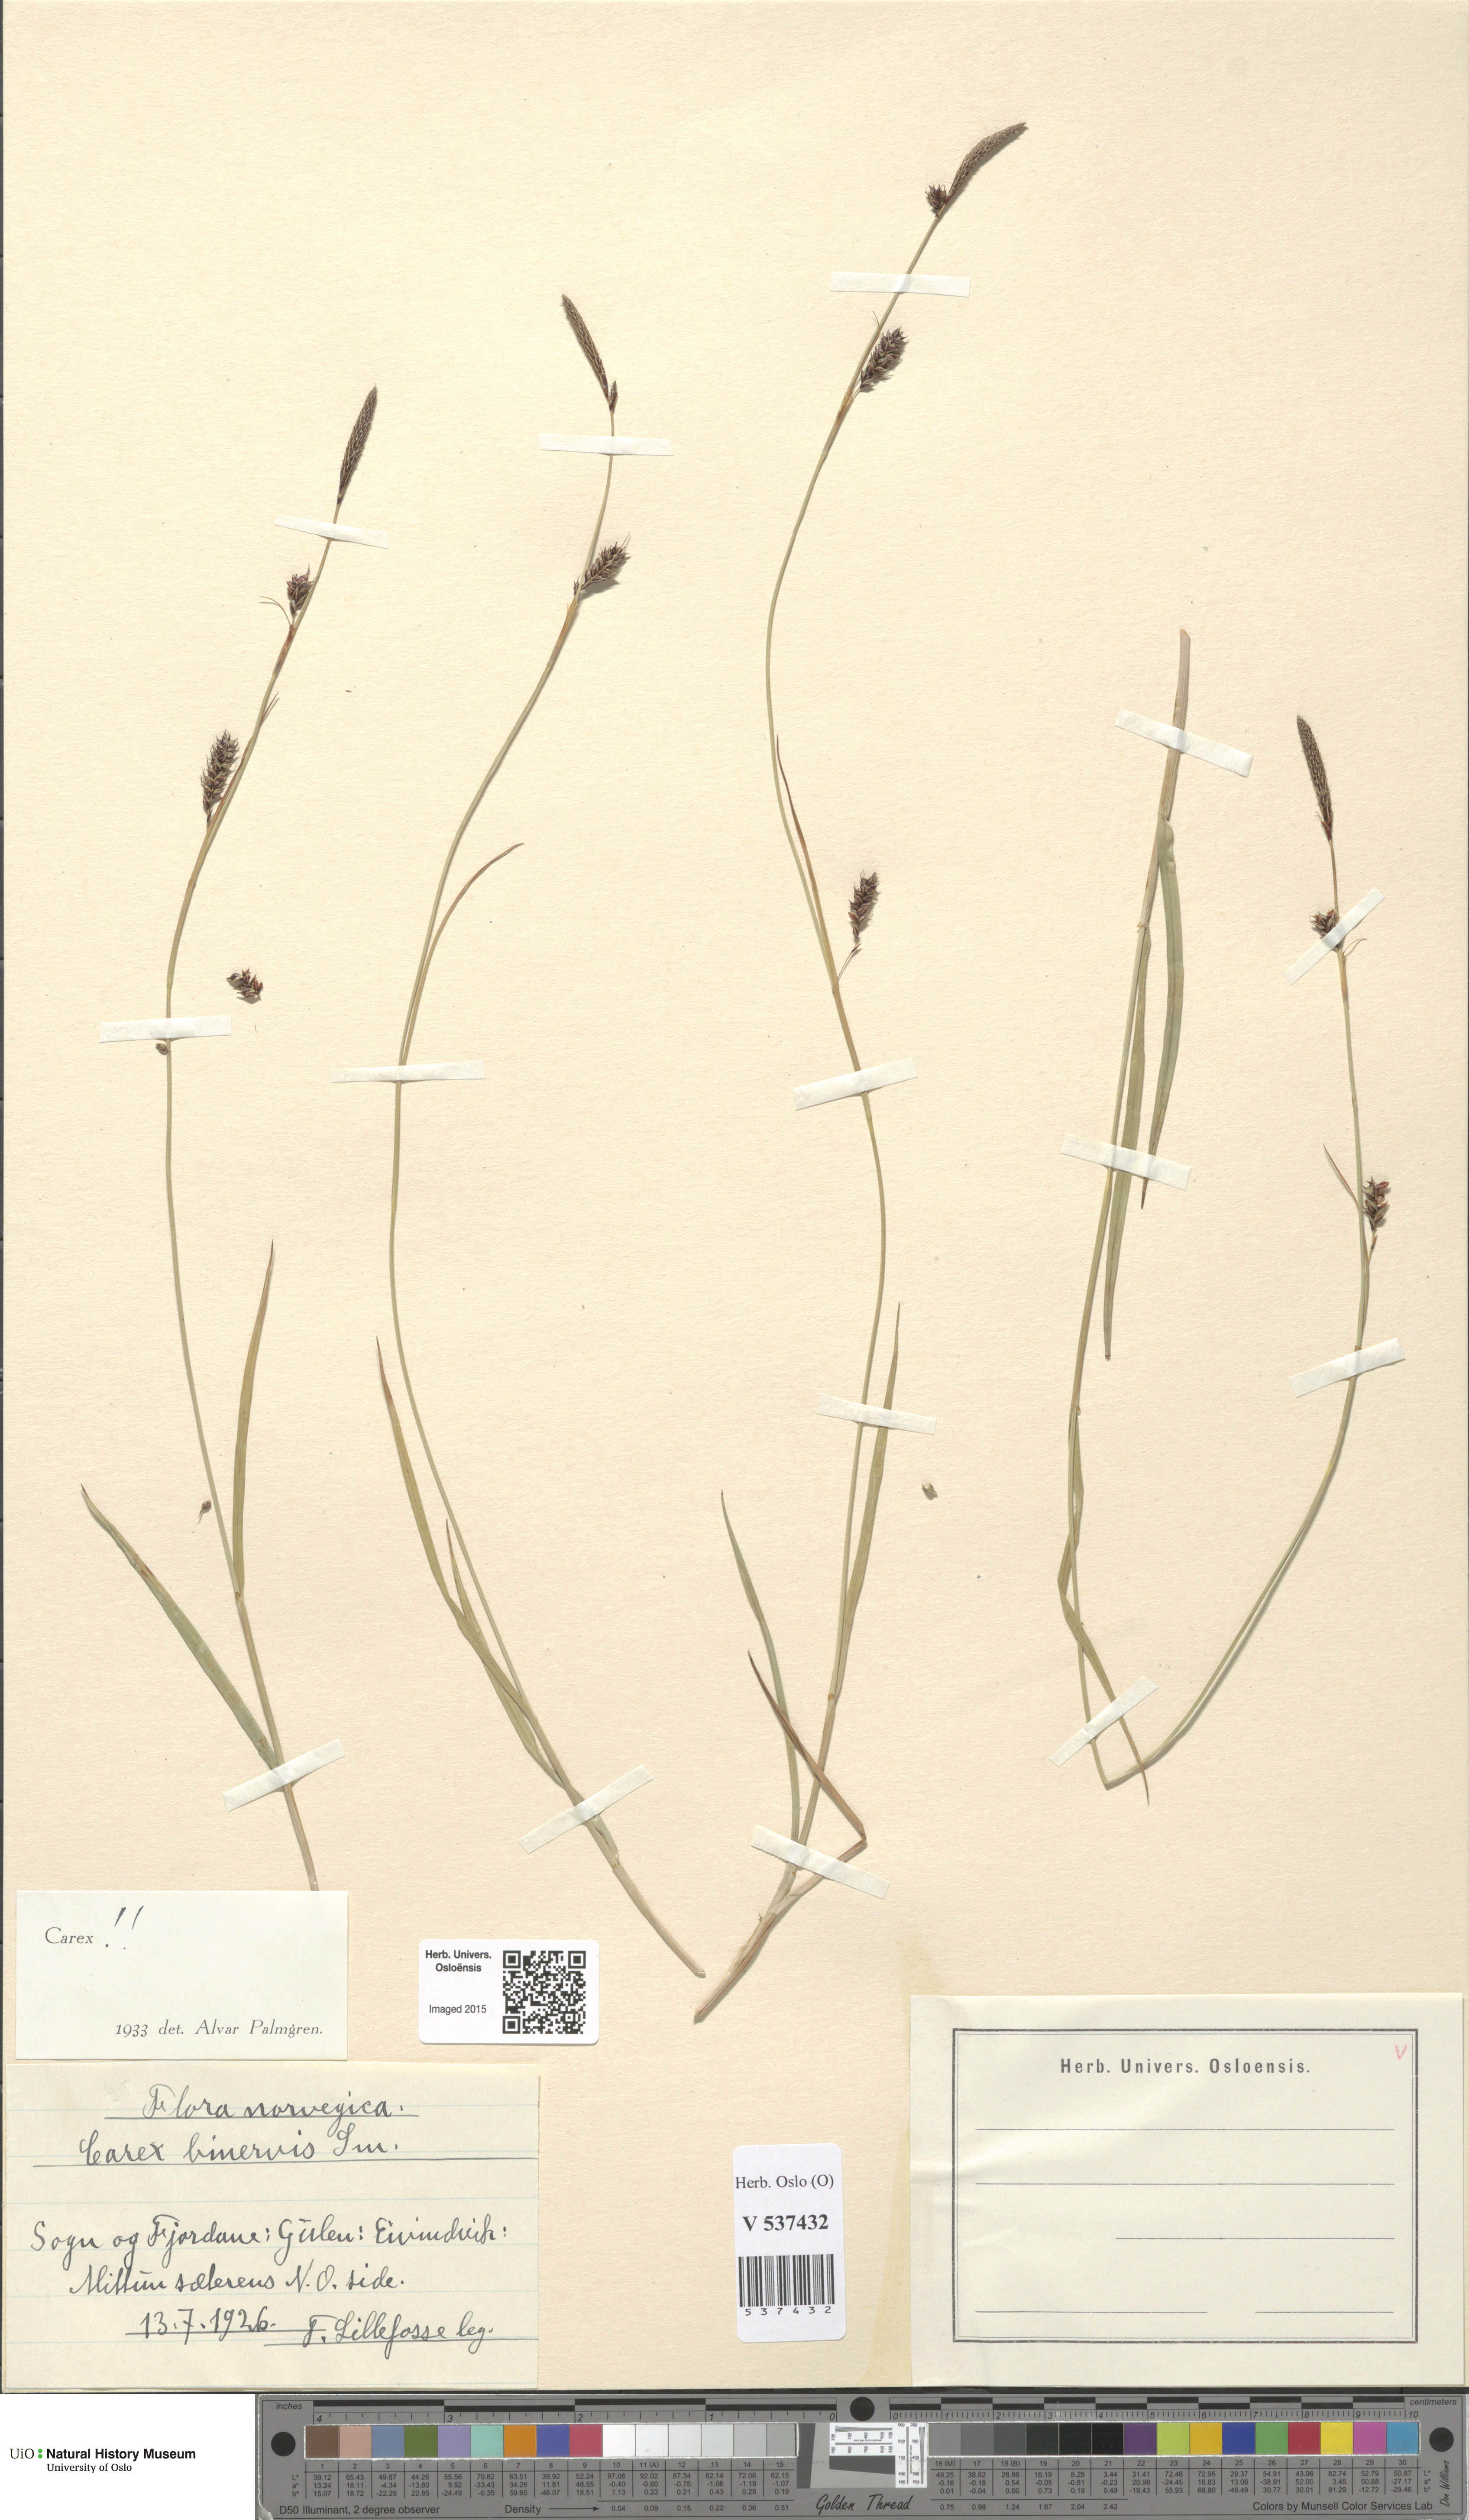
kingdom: Plantae
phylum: Tracheophyta
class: Liliopsida
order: Poales
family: Cyperaceae
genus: Carex
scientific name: Carex binervis
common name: Green-ribbed sedge
